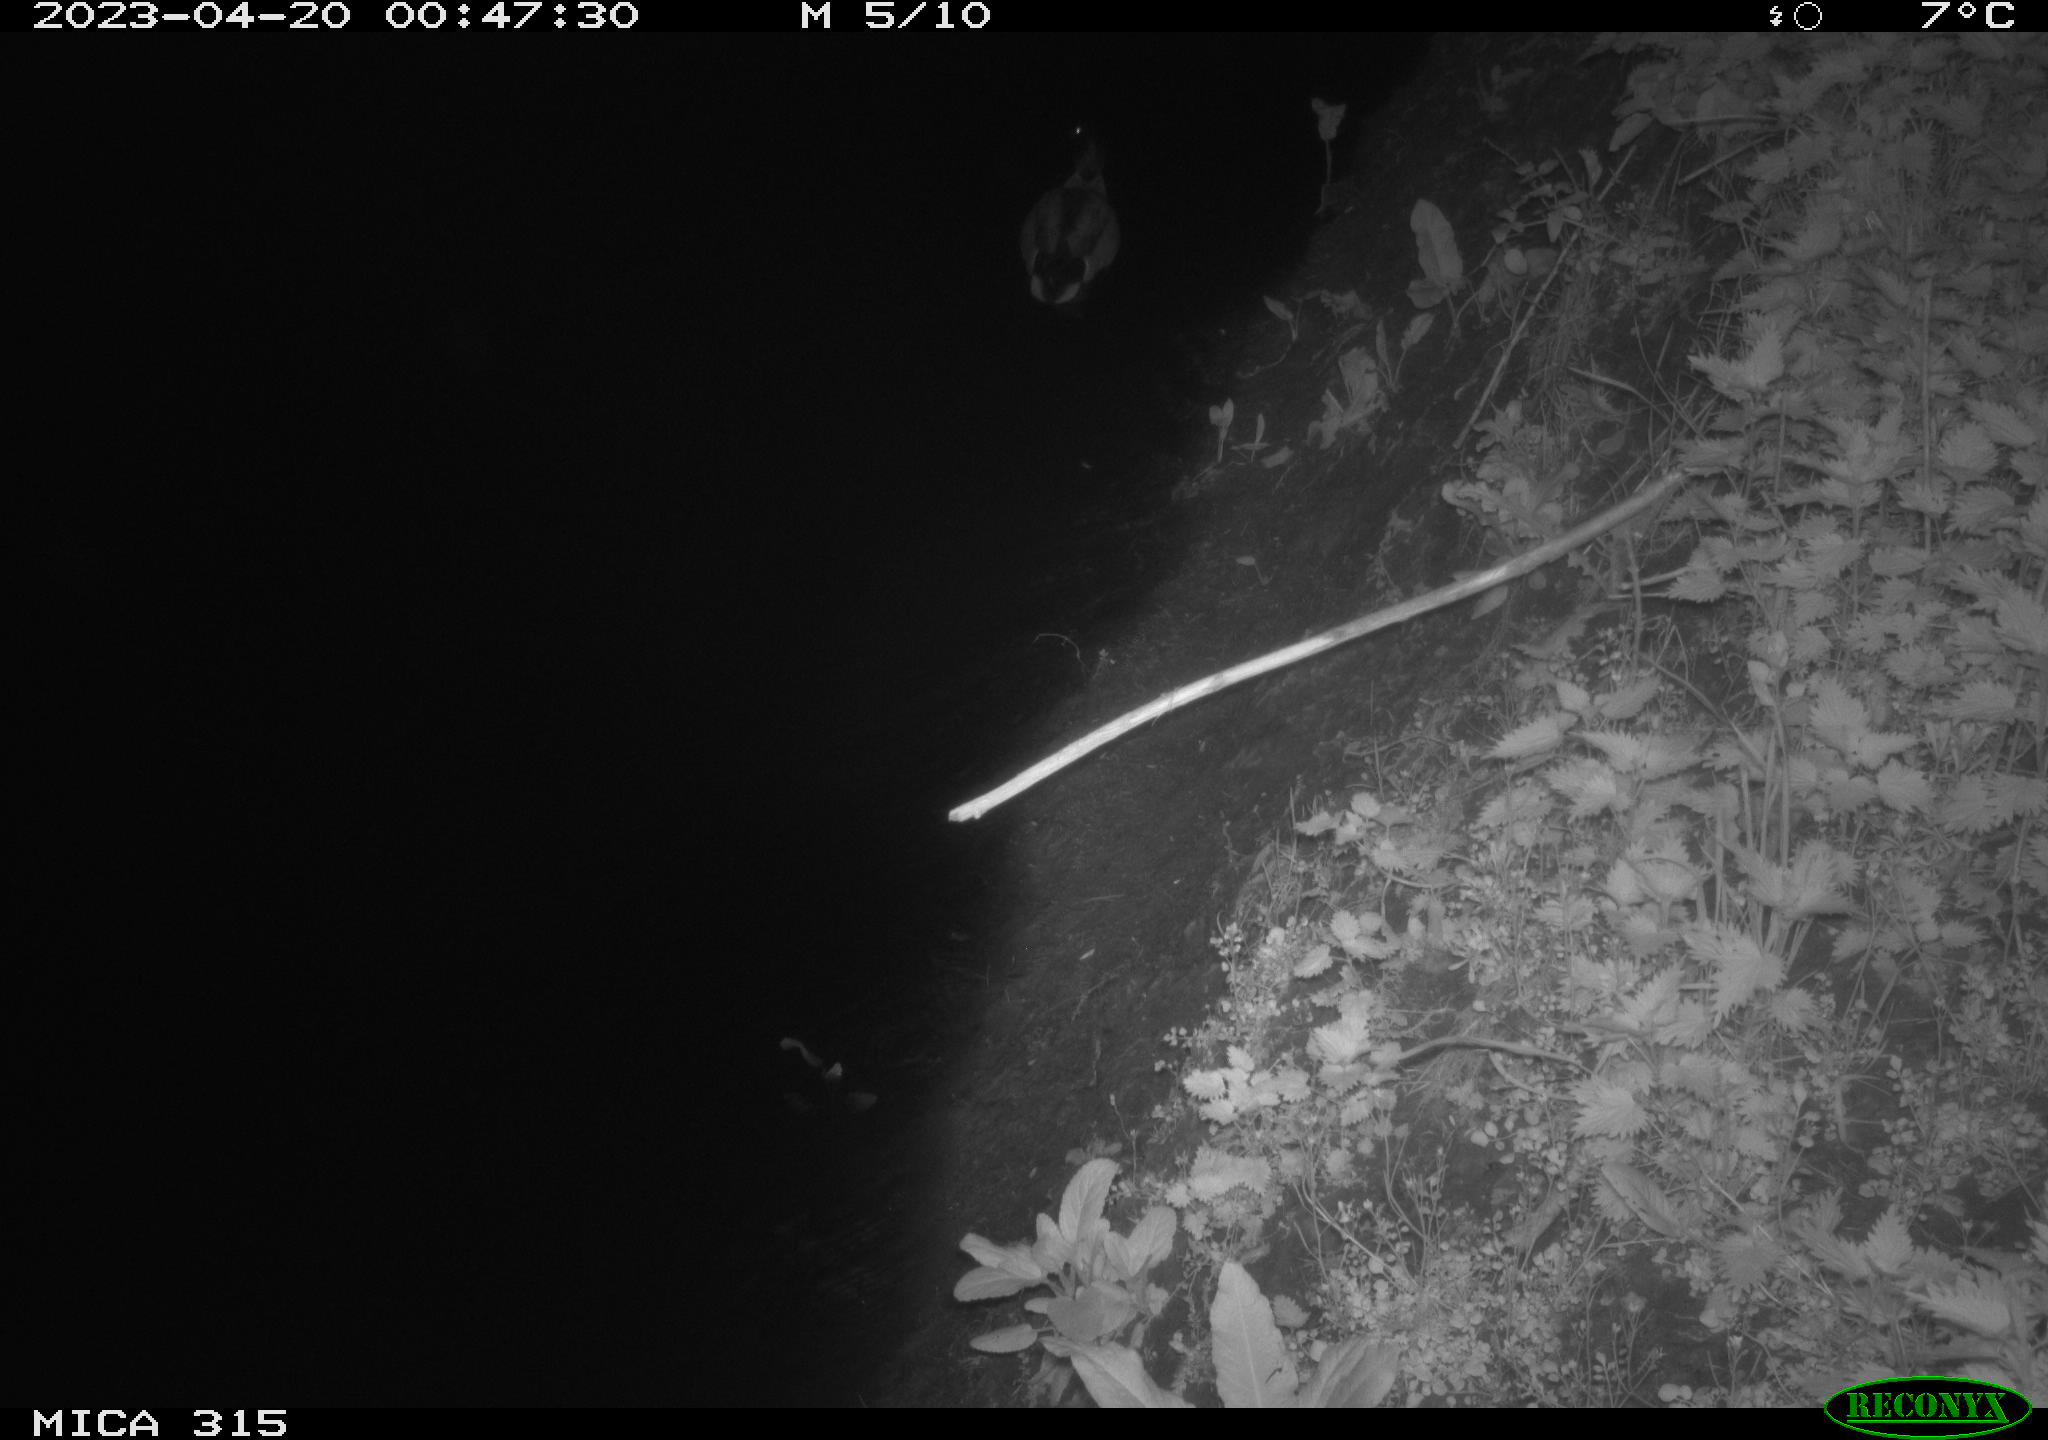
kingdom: Animalia
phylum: Chordata
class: Aves
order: Anseriformes
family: Anatidae
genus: Anas
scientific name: Anas
